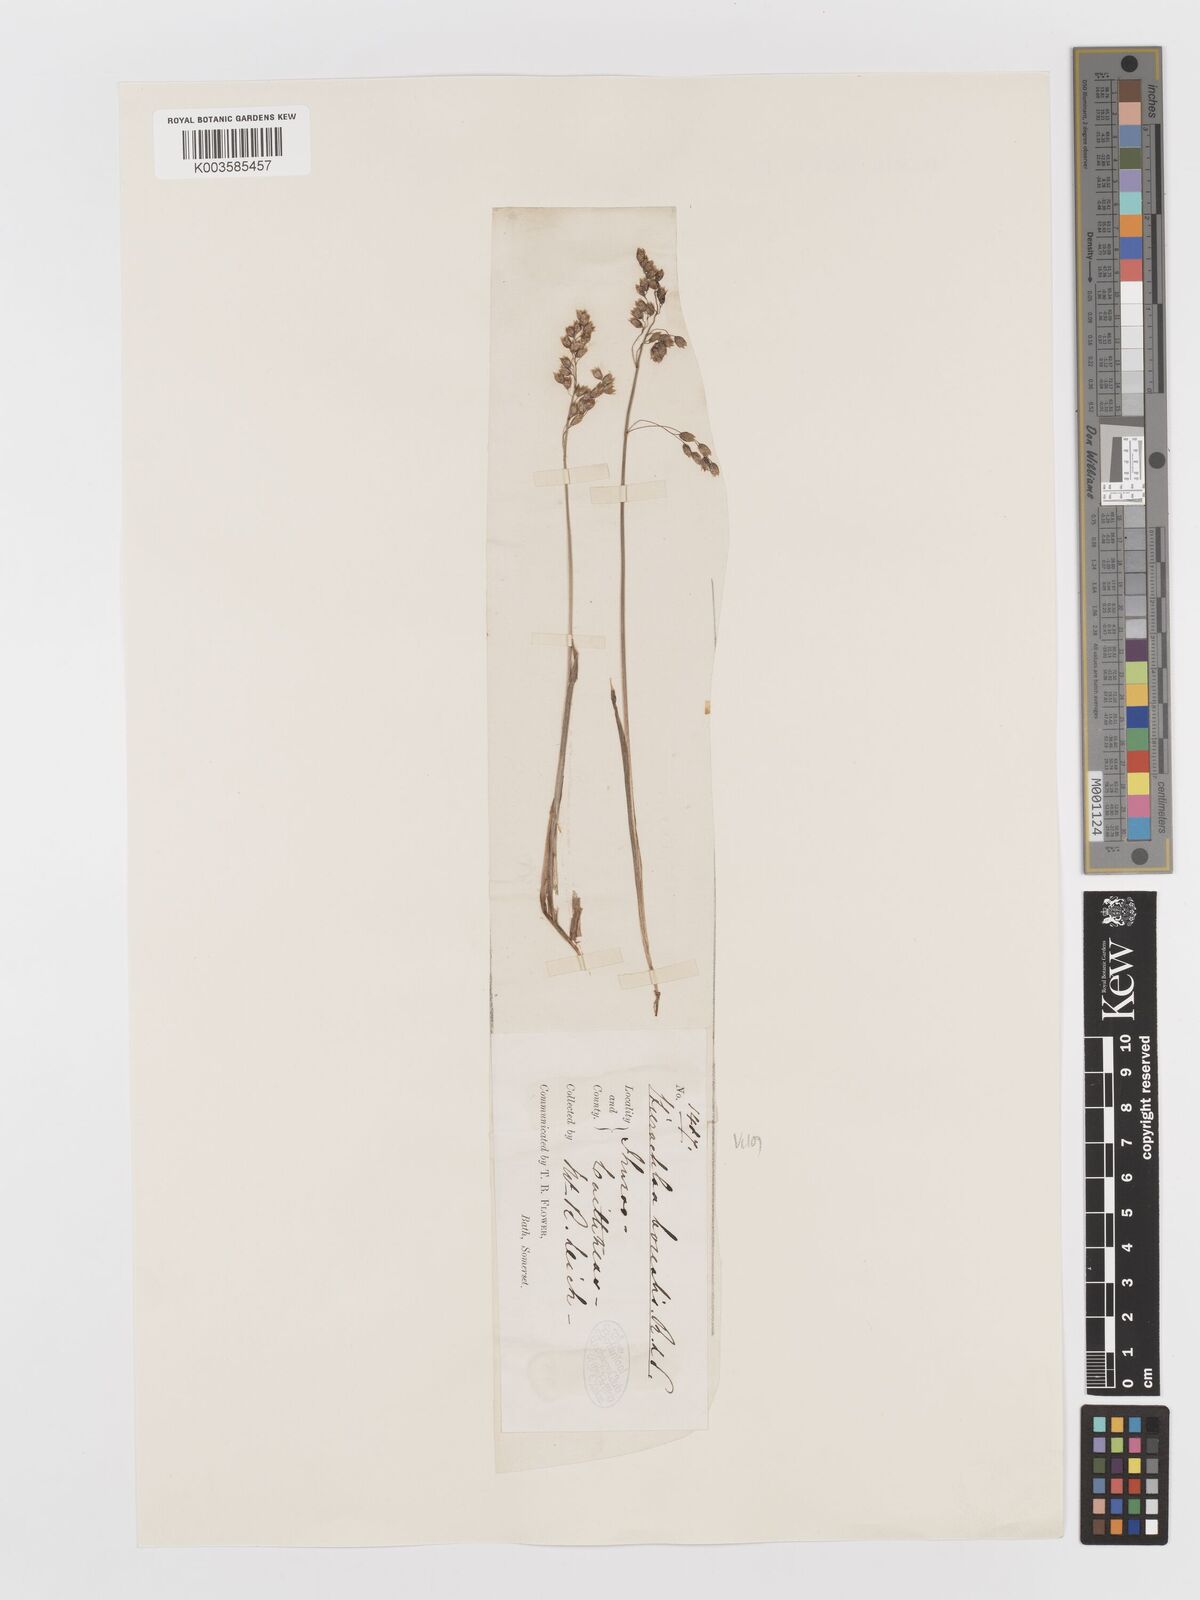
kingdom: Plantae
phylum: Tracheophyta
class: Liliopsida
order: Poales
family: Poaceae
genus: Anthoxanthum
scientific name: Anthoxanthum nitens
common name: Holy grass
